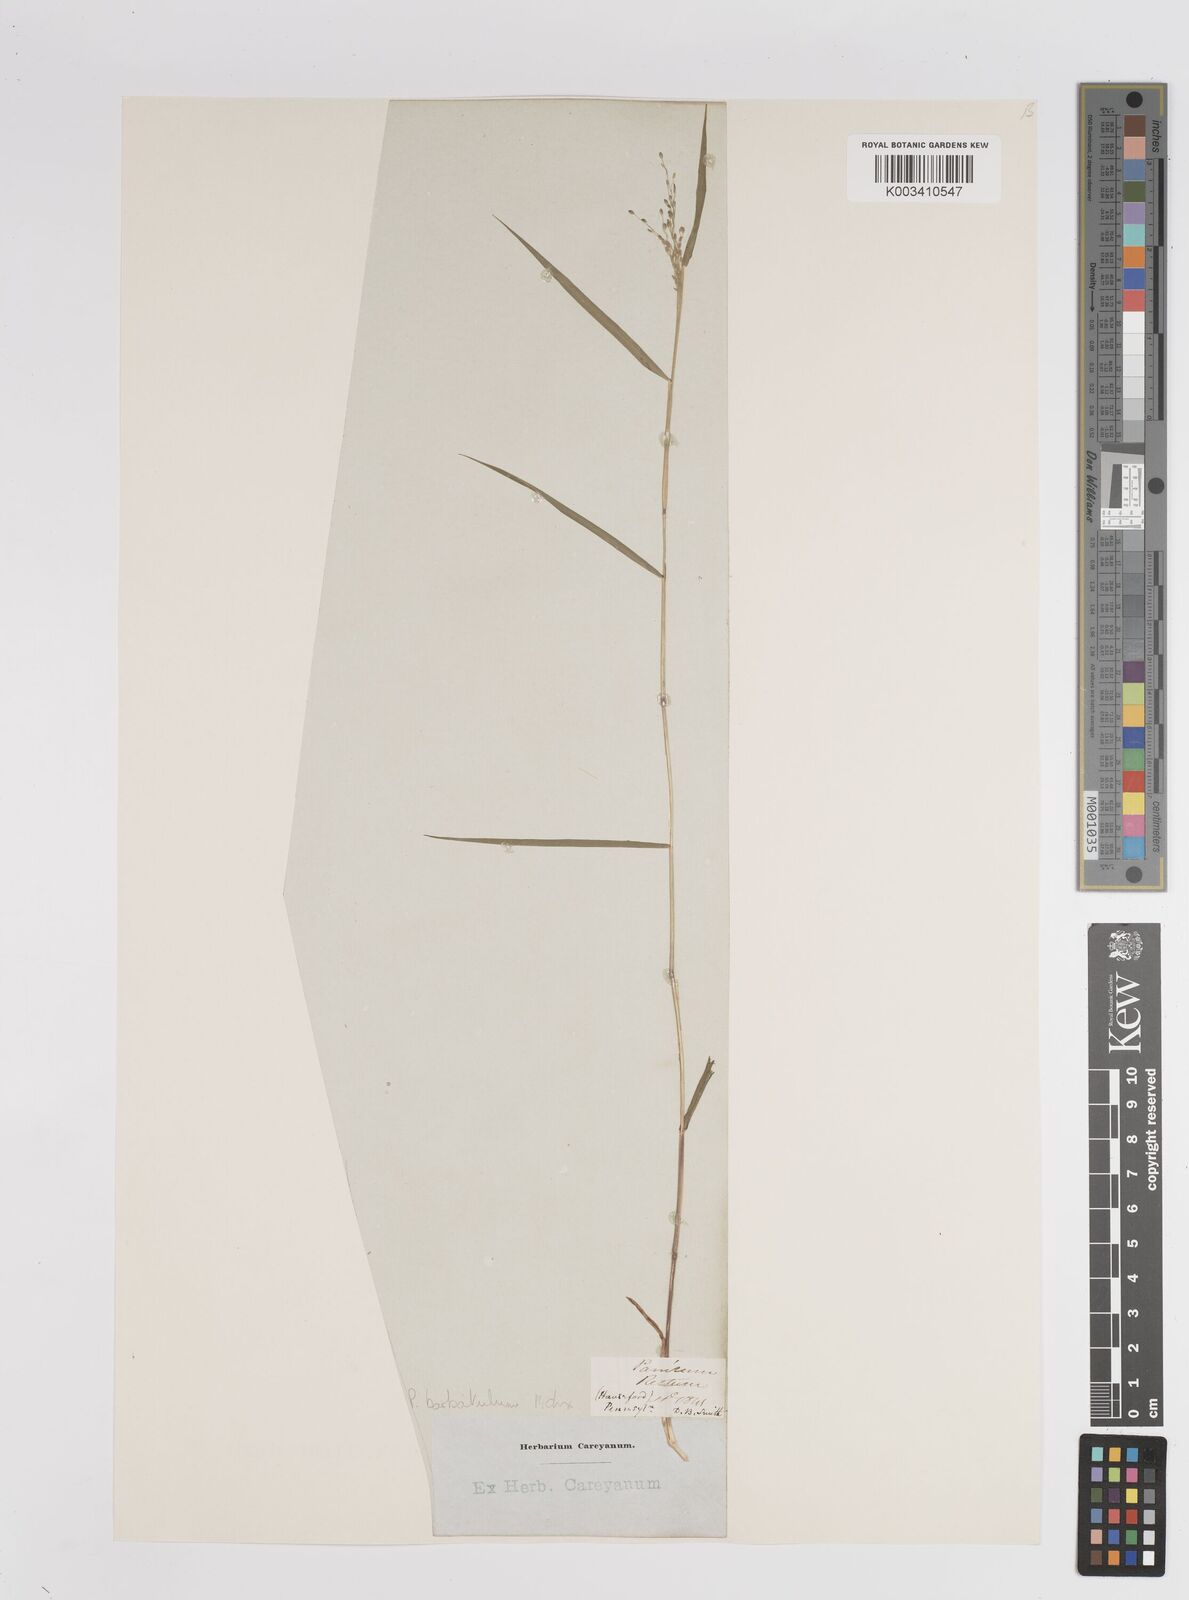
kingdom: Plantae
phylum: Tracheophyta
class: Liliopsida
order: Poales
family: Poaceae
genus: Dichanthelium
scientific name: Dichanthelium dichotomum
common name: Cypress panicgrass
